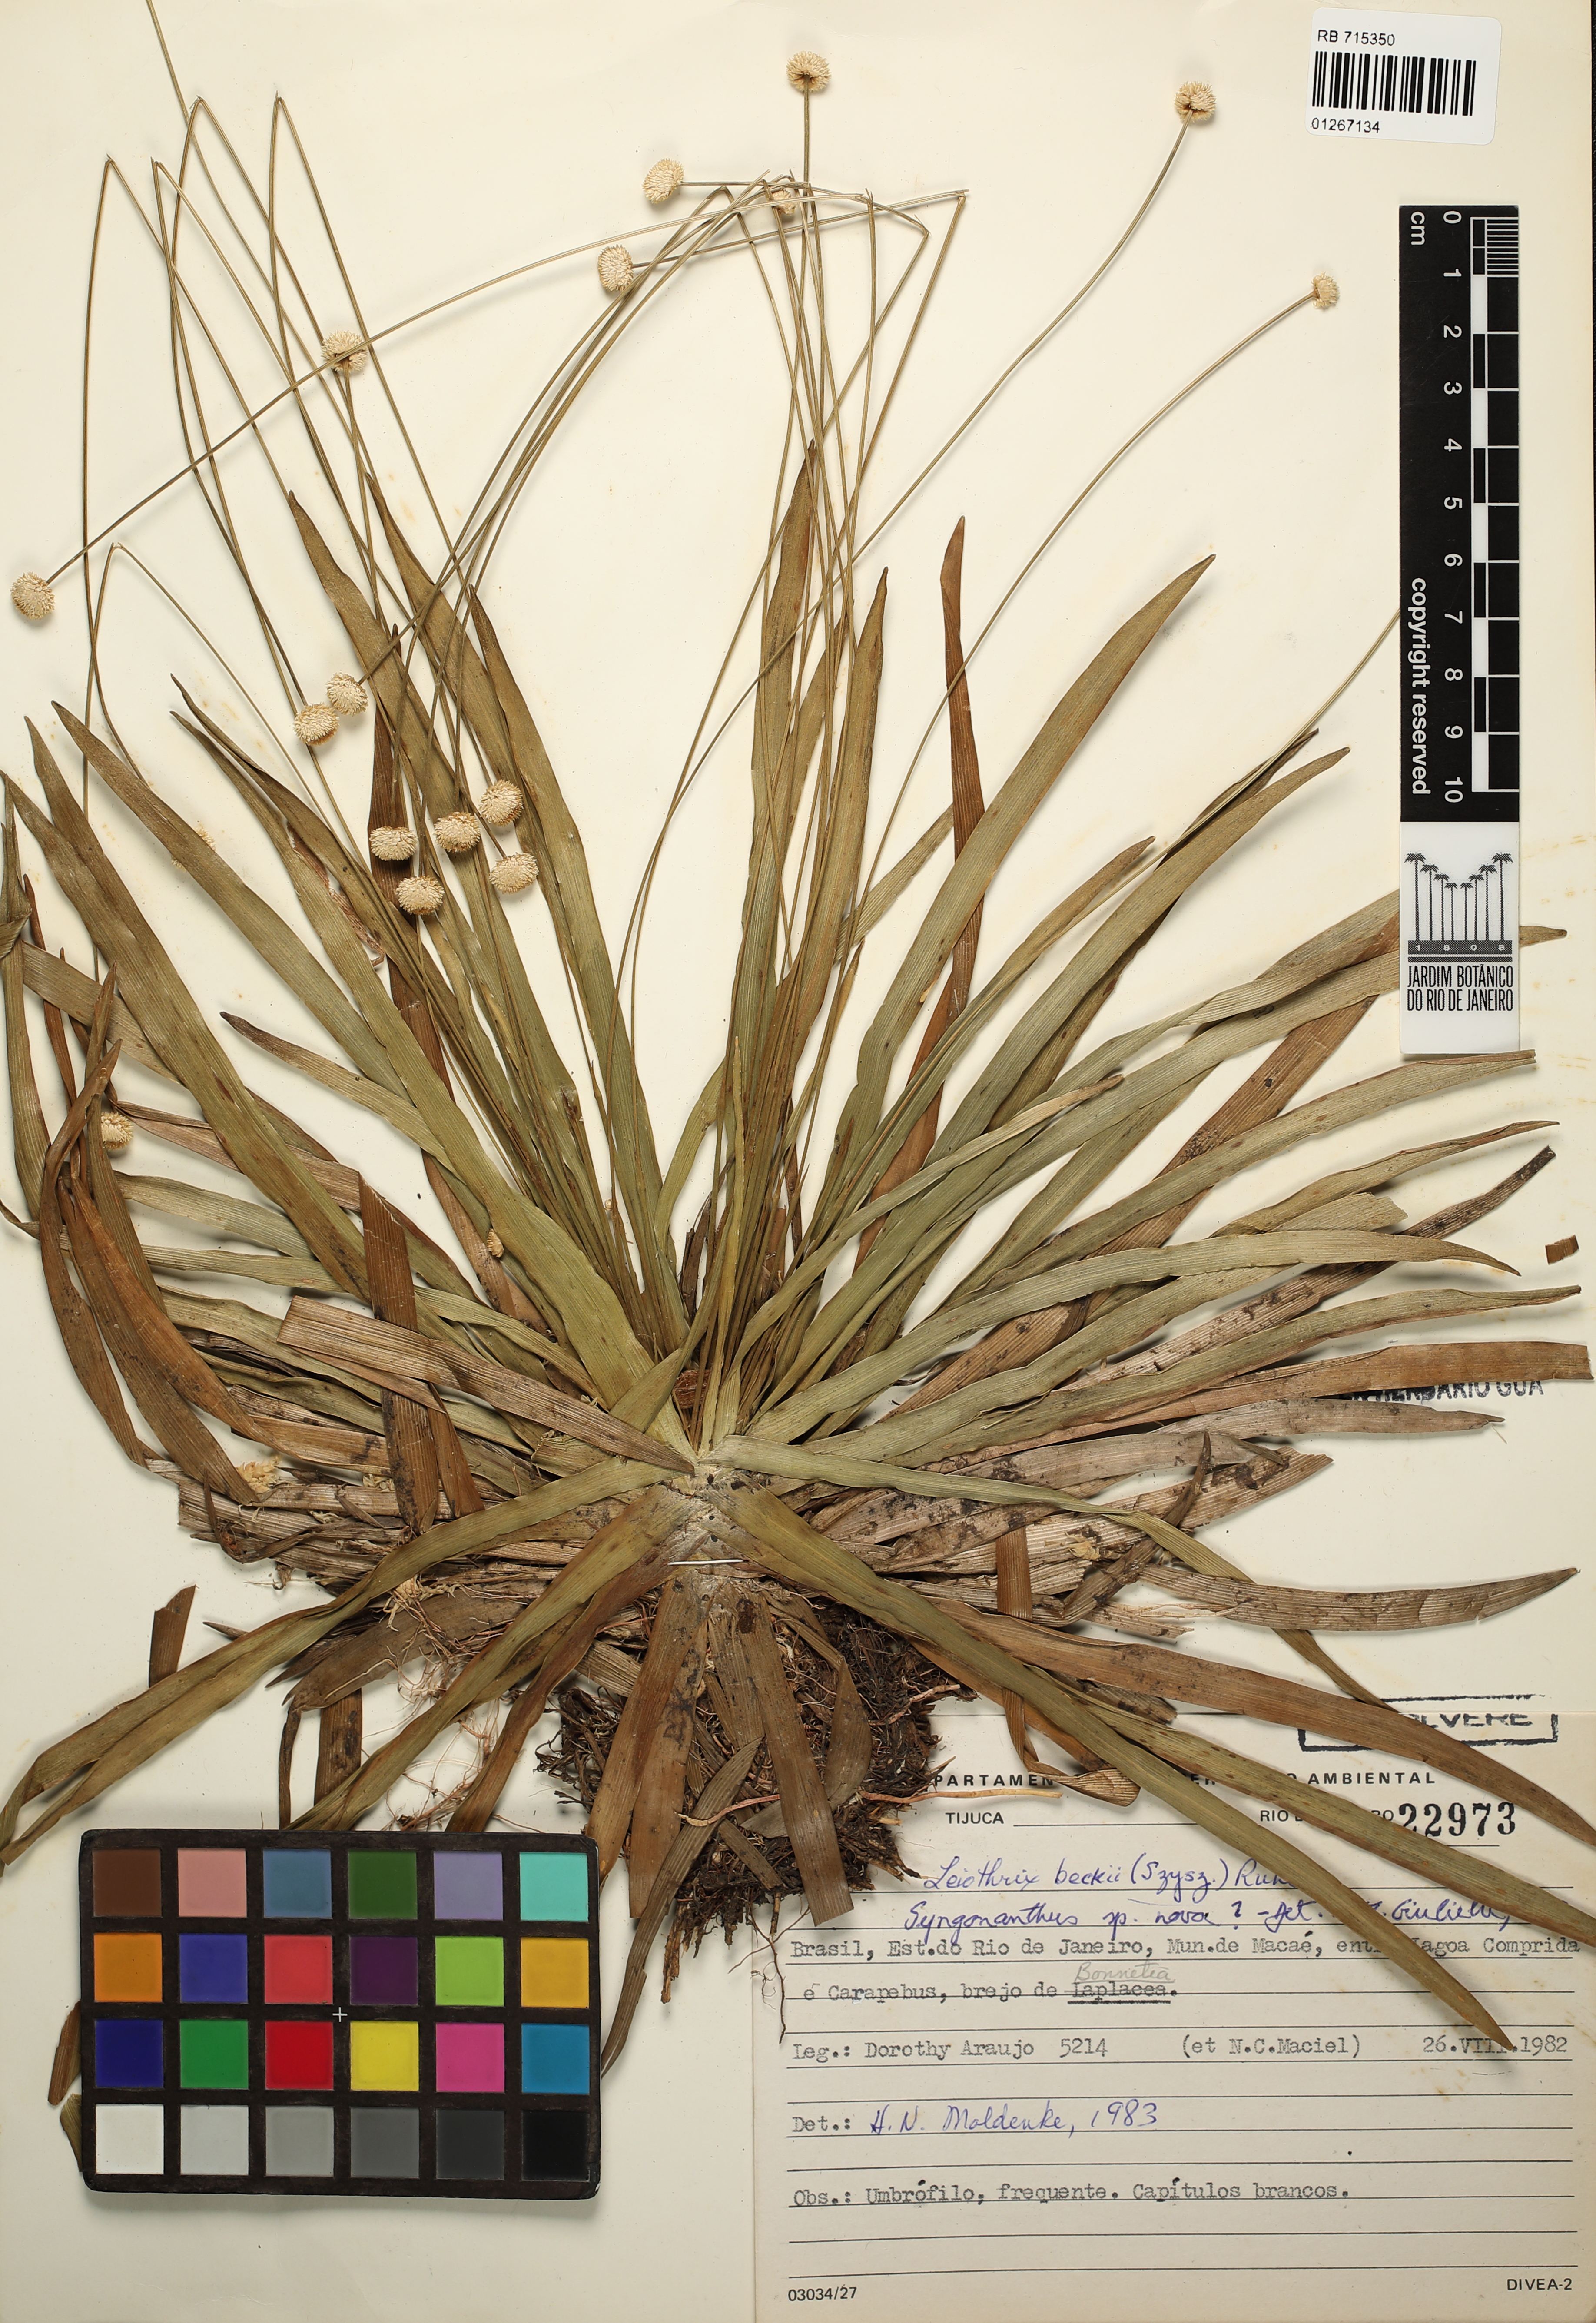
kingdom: Plantae
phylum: Tracheophyta
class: Liliopsida
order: Poales
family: Eriocaulaceae
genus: Syngonanthus
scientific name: Syngonanthus
